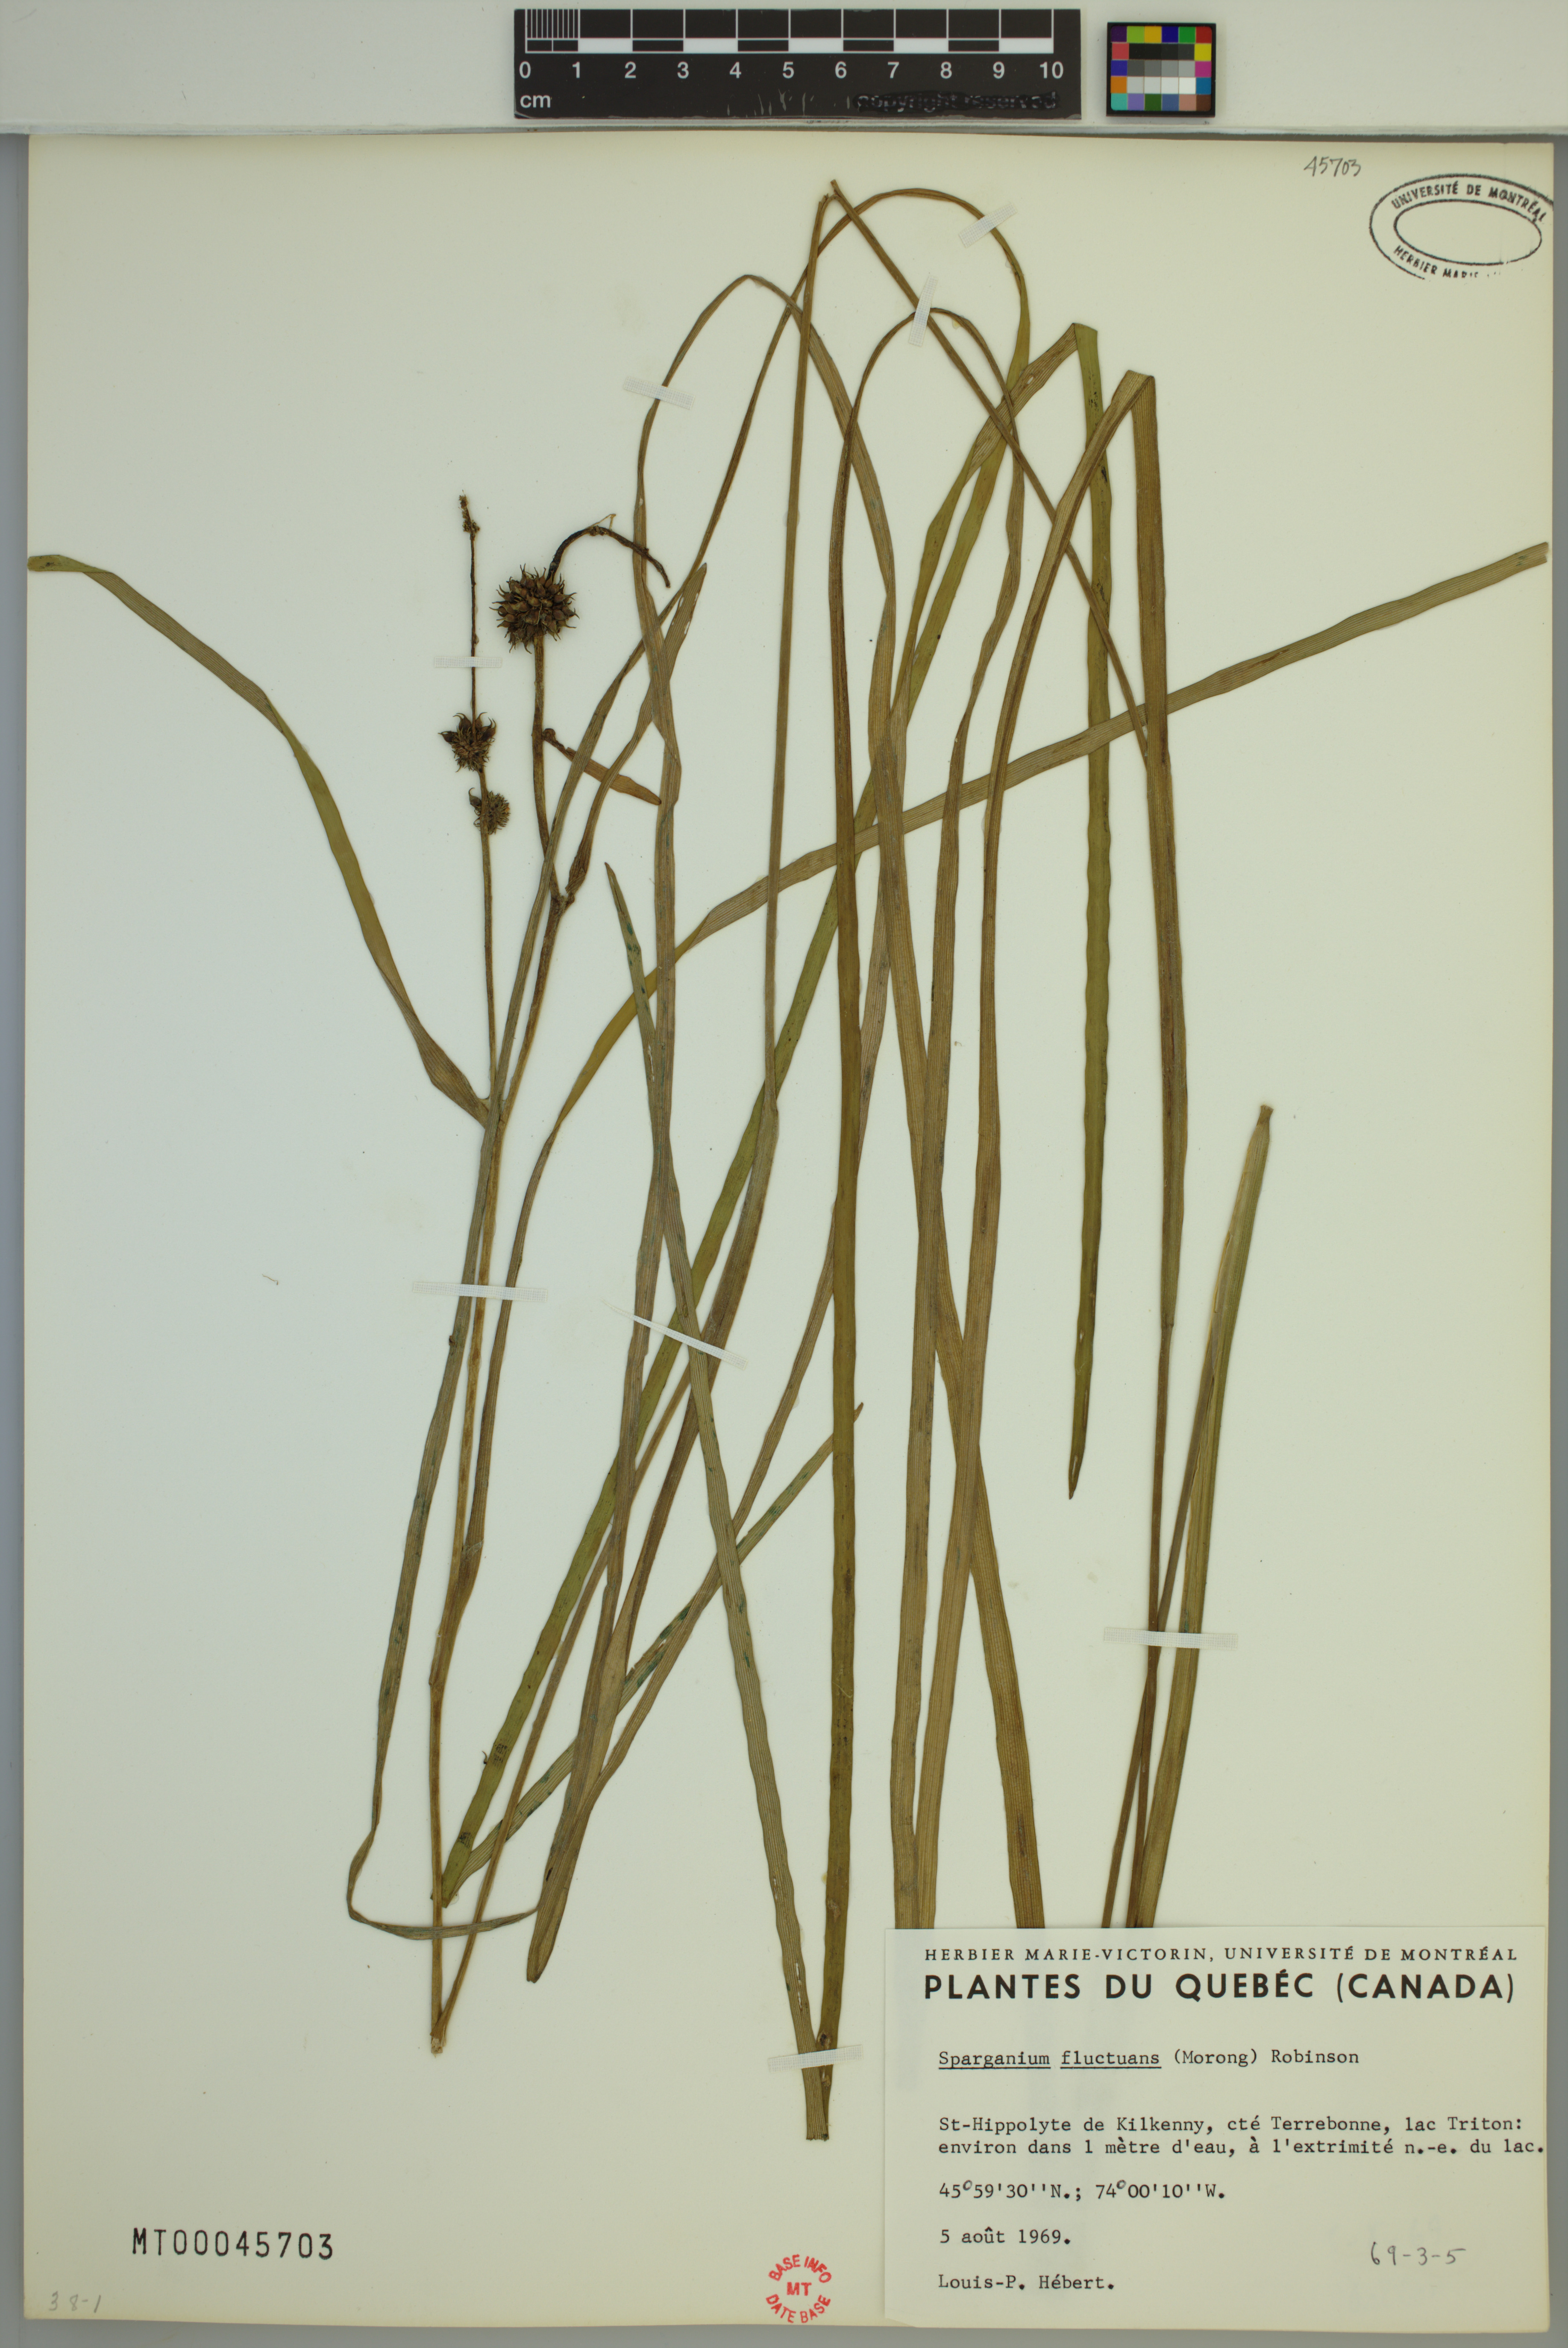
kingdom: Plantae
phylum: Tracheophyta
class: Liliopsida
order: Poales
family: Typhaceae
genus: Sparganium
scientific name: Sparganium fluctuans
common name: Floating burreed
